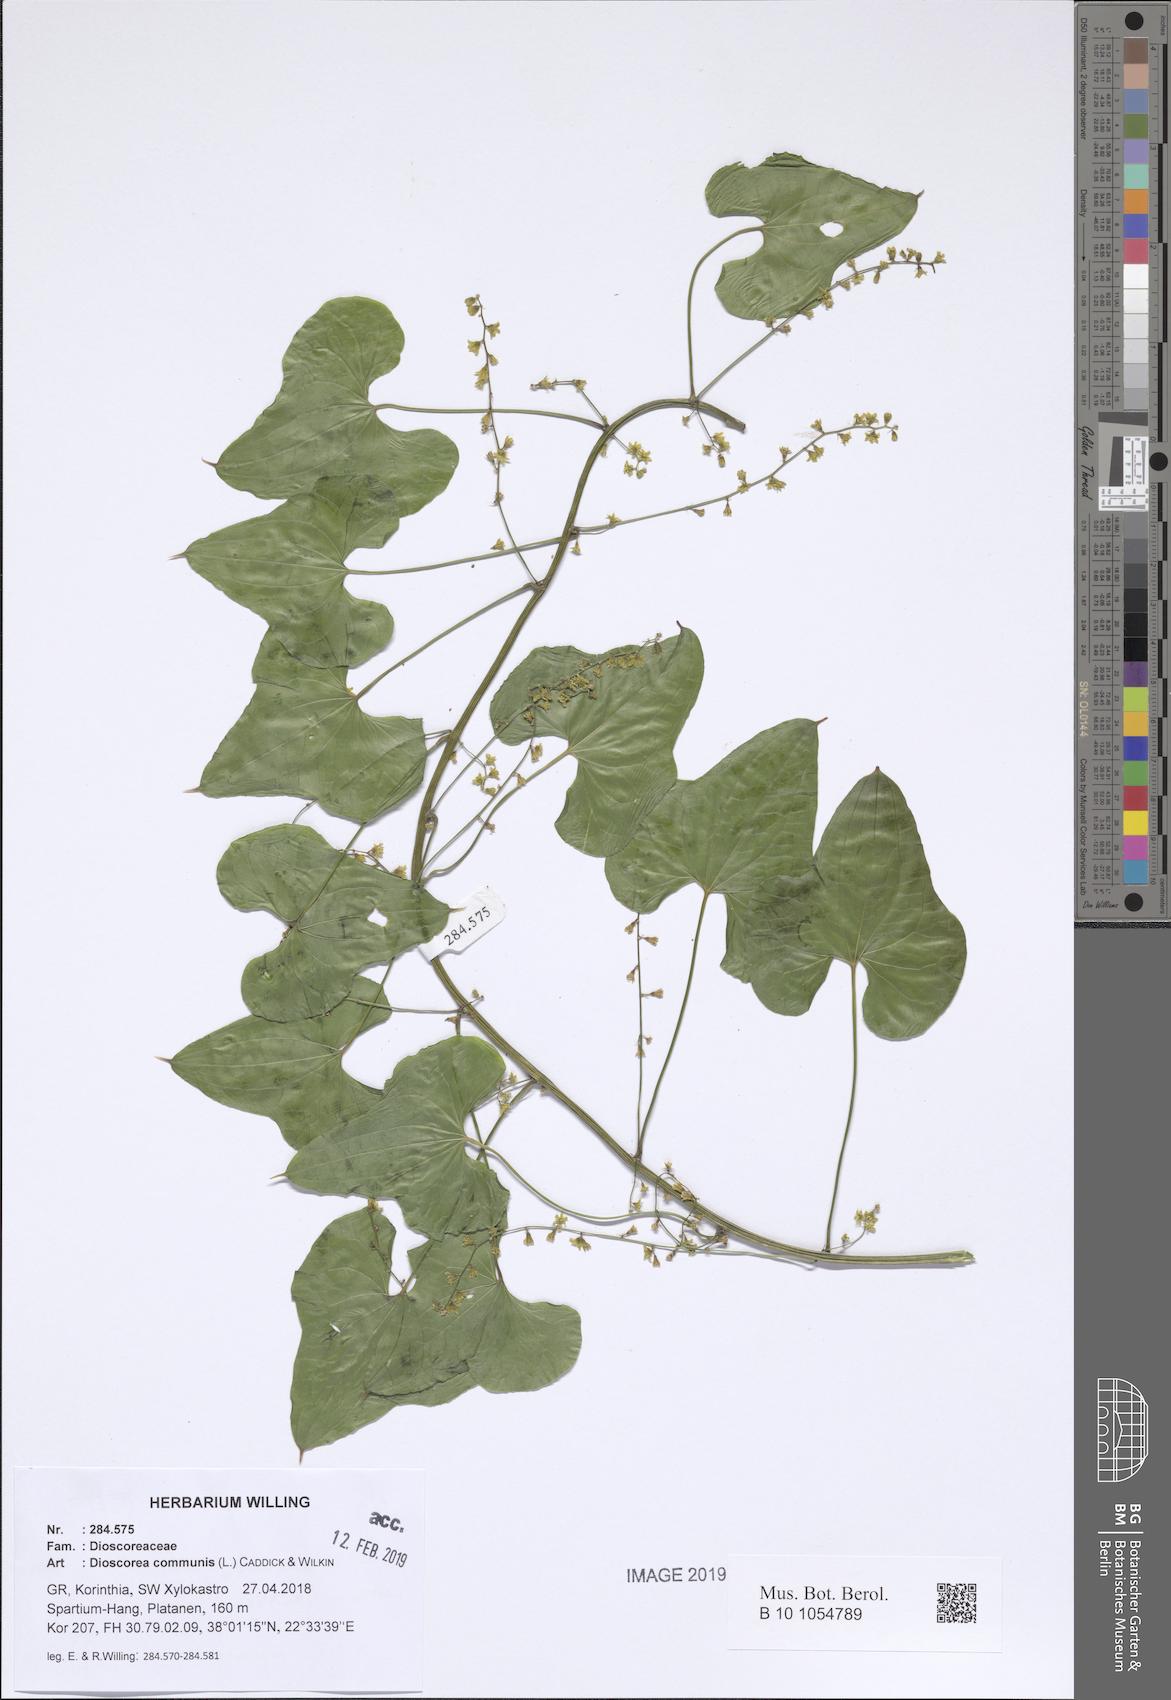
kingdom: Plantae
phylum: Tracheophyta
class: Liliopsida
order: Dioscoreales
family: Dioscoreaceae
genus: Dioscorea
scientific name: Dioscorea communis
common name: Black-bindweed
